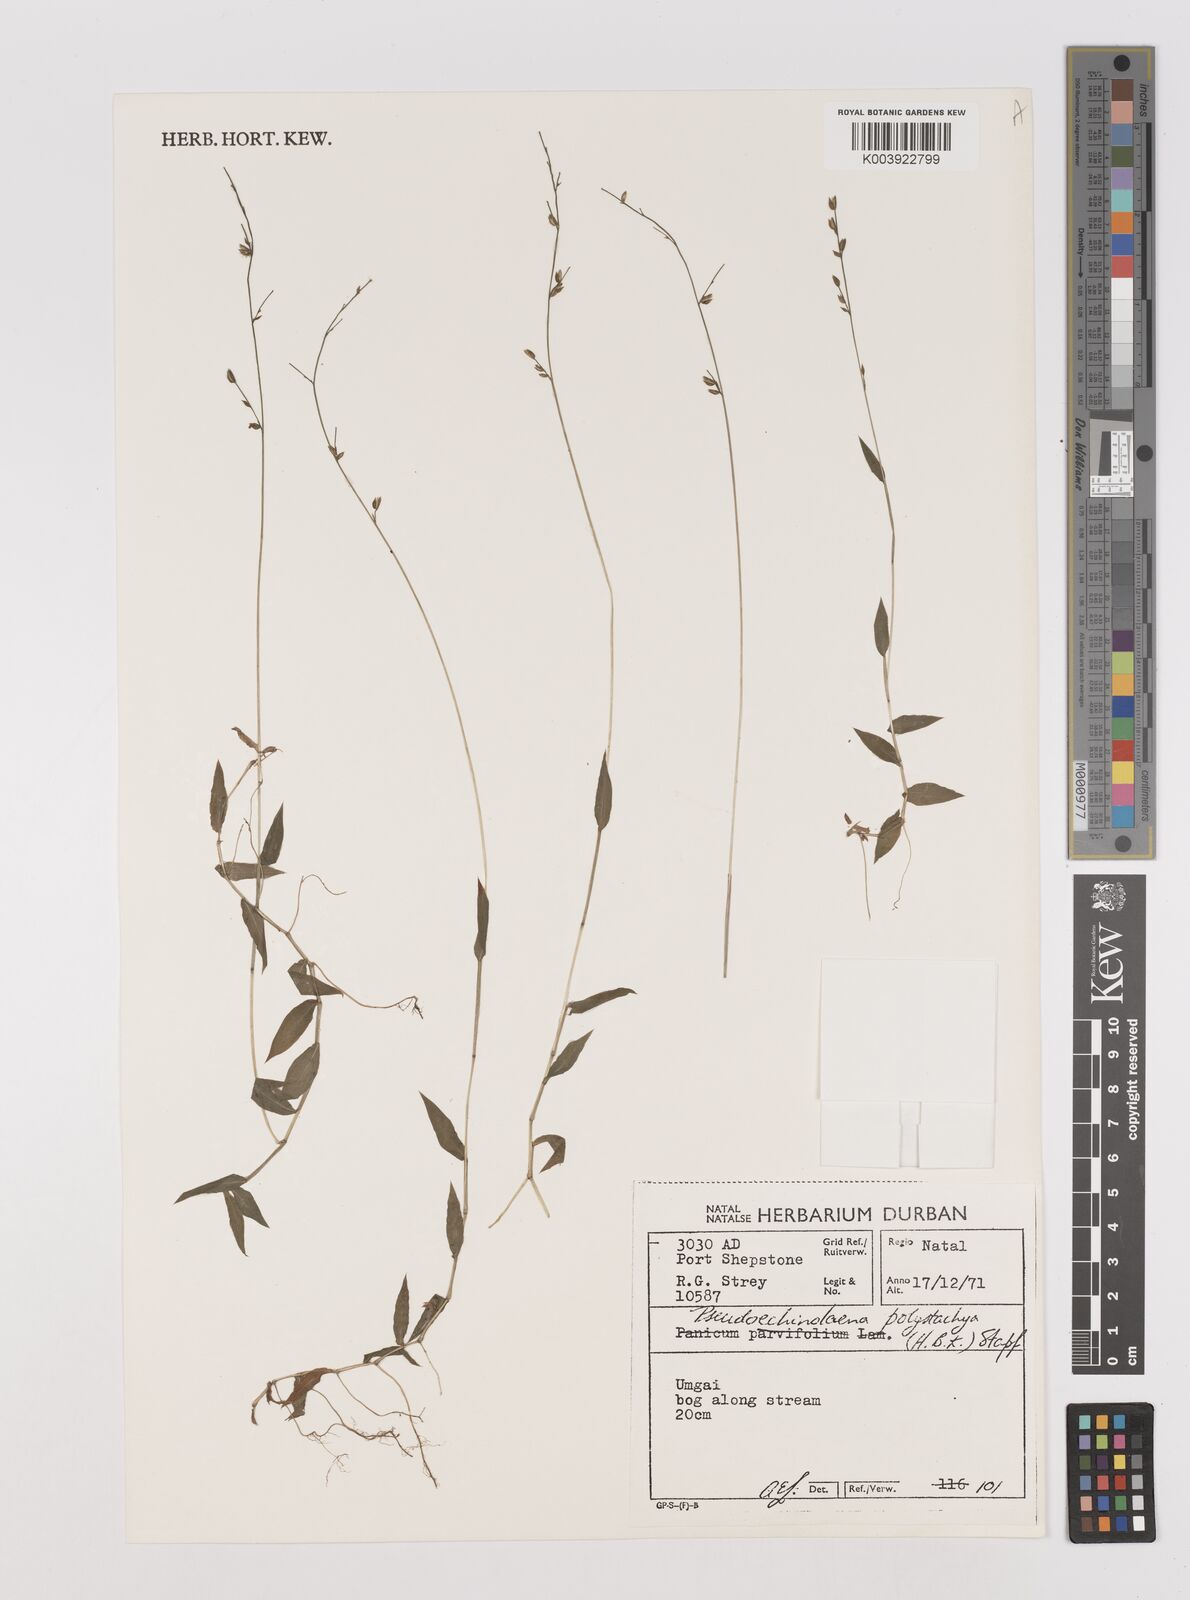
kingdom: Plantae
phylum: Tracheophyta
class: Liliopsida
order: Poales
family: Poaceae
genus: Pseudechinolaena
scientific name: Pseudechinolaena polystachya
